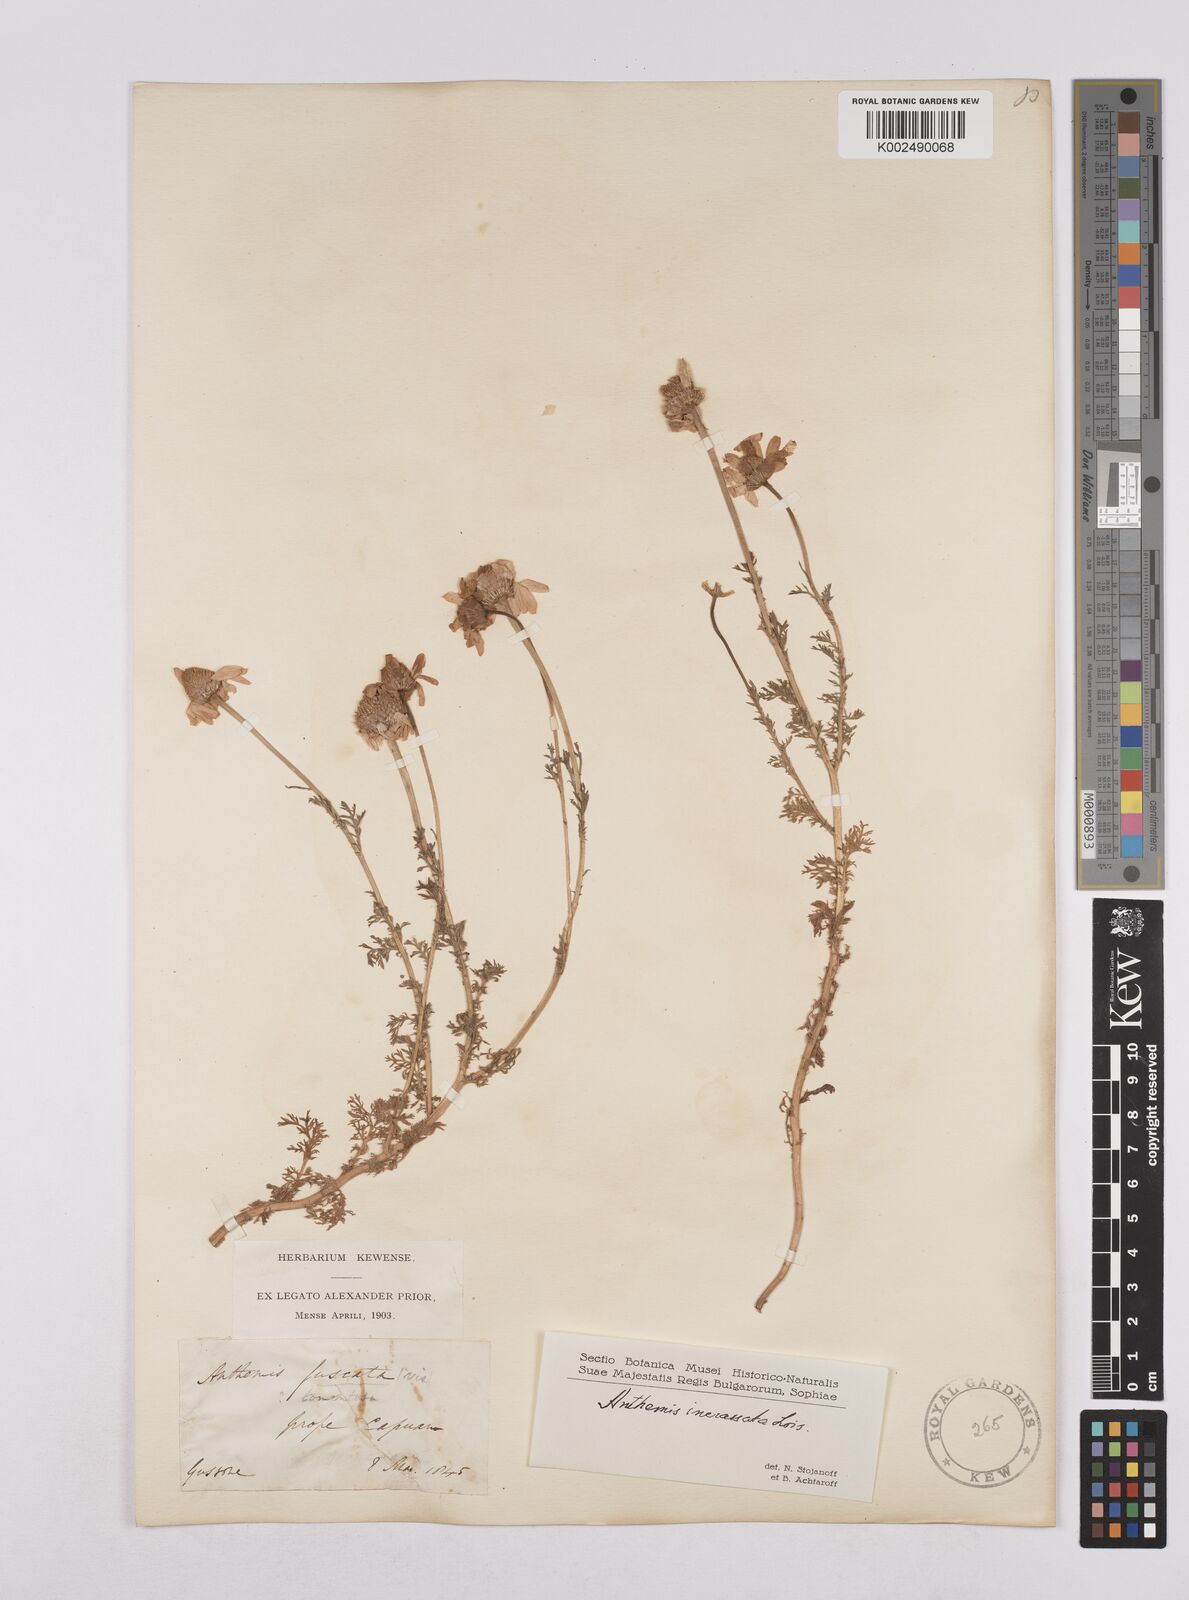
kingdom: Plantae
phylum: Tracheophyta
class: Magnoliopsida
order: Asterales
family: Asteraceae
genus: Chamaemelum
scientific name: Chamaemelum fuscatum
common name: Chamomile
